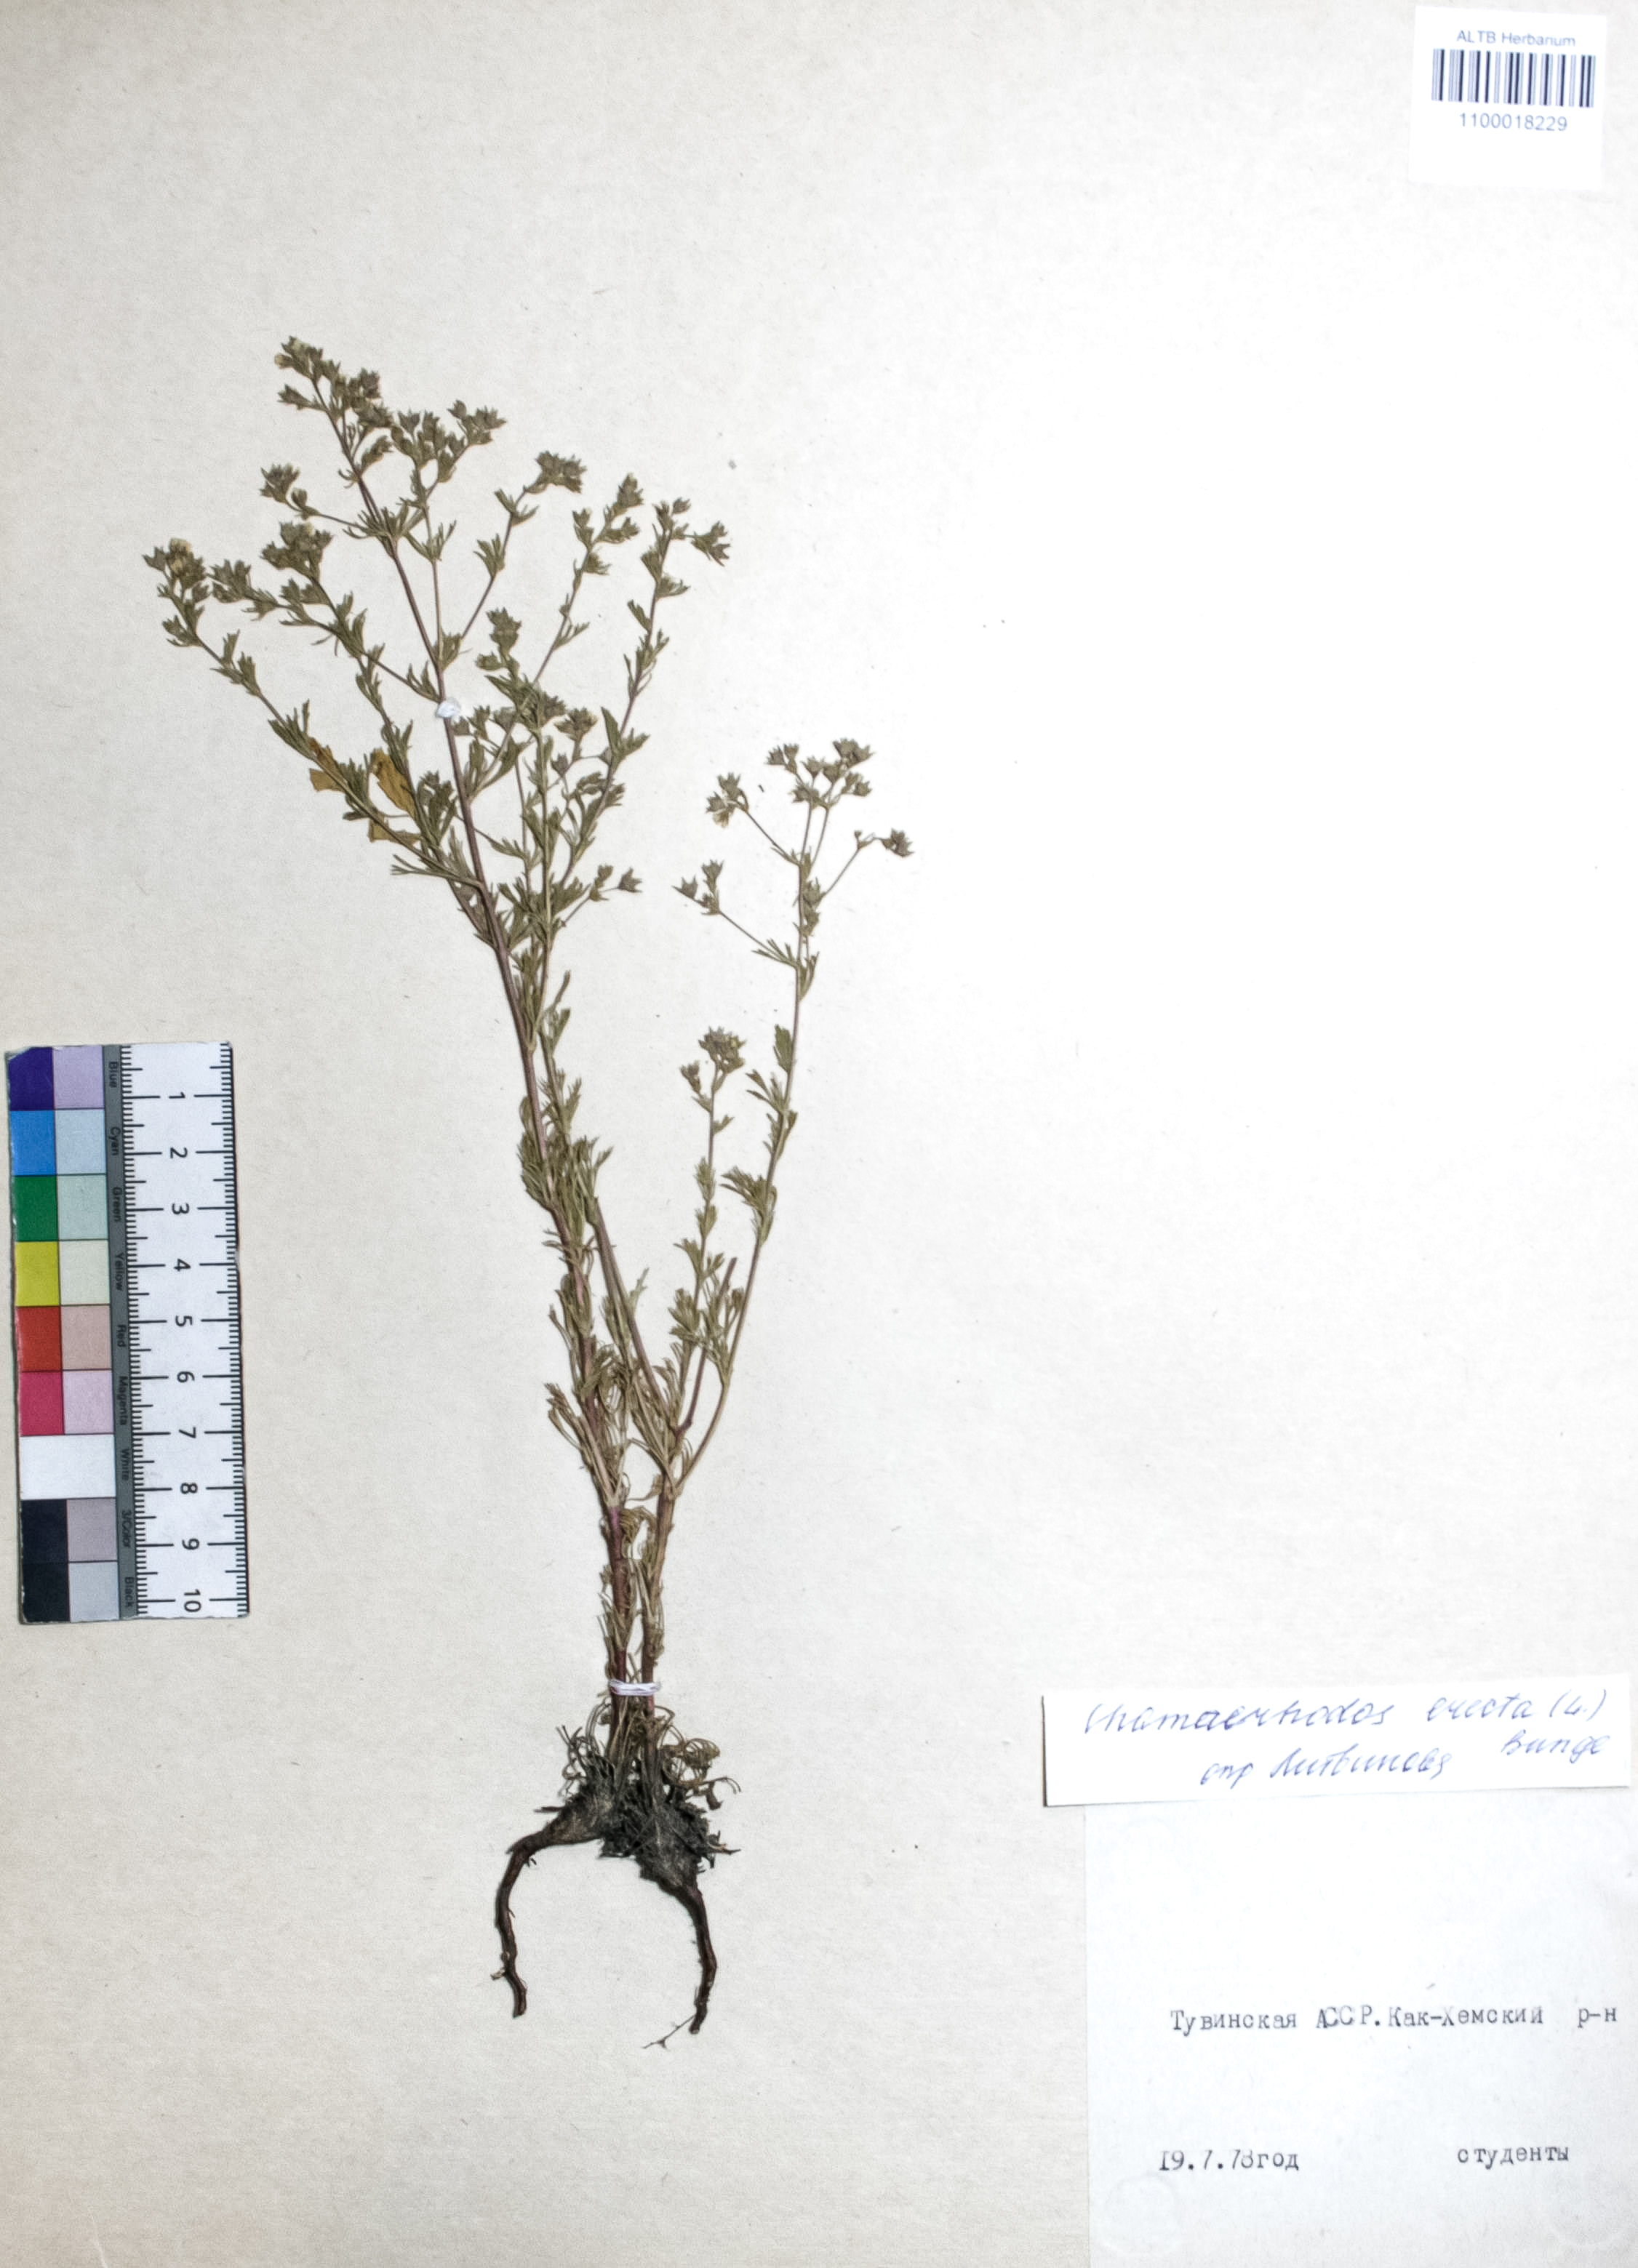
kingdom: Plantae
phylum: Tracheophyta
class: Magnoliopsida
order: Rosales
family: Rosaceae
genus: Chamaerhodos
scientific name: Chamaerhodos erecta
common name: American chamaerhodos
